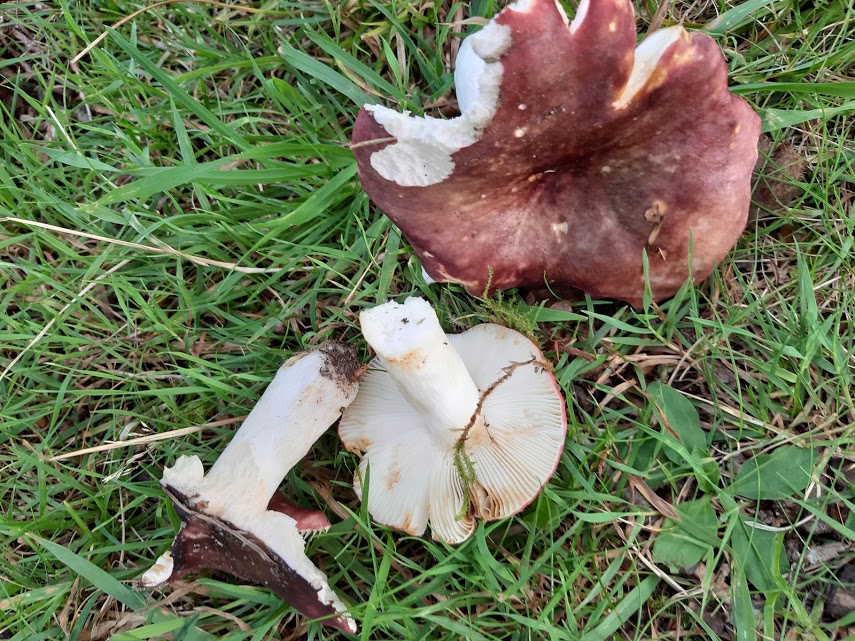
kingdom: Fungi
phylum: Basidiomycota
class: Agaricomycetes
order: Russulales
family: Russulaceae
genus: Russula
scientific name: Russula
